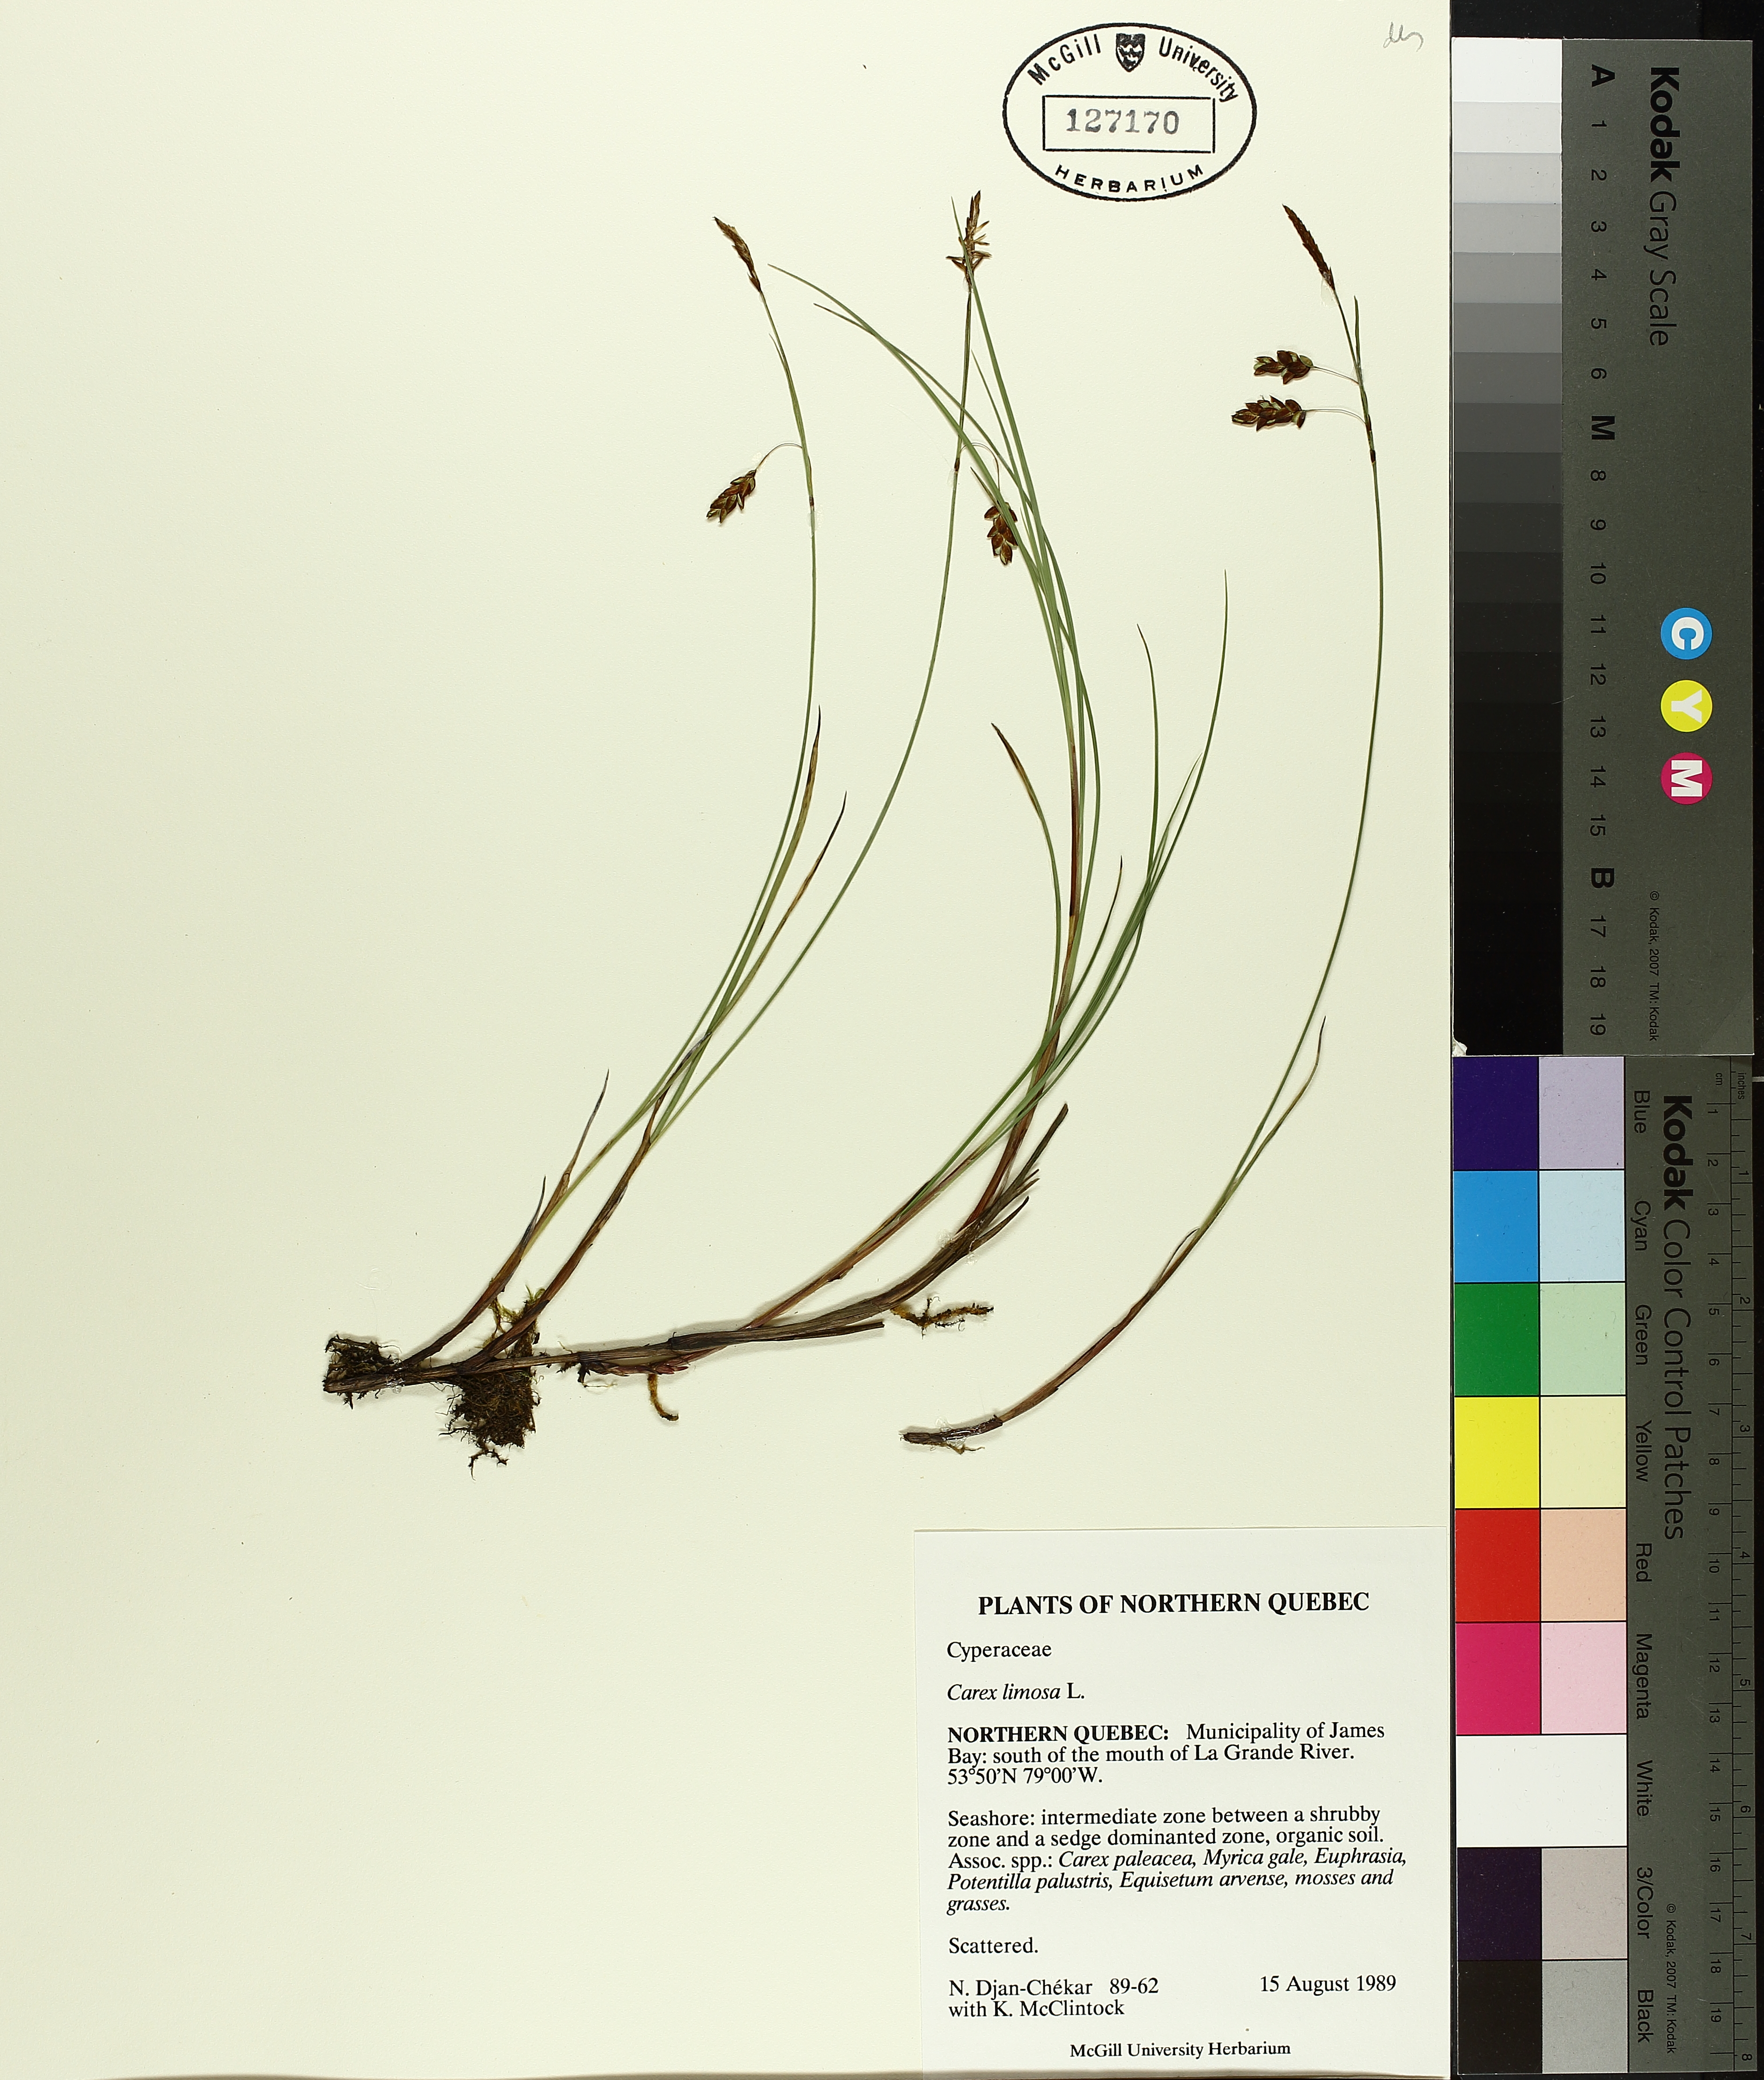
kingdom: Plantae
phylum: Tracheophyta
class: Liliopsida
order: Poales
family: Cyperaceae
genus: Carex
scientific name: Carex limosa
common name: Bog sedge
